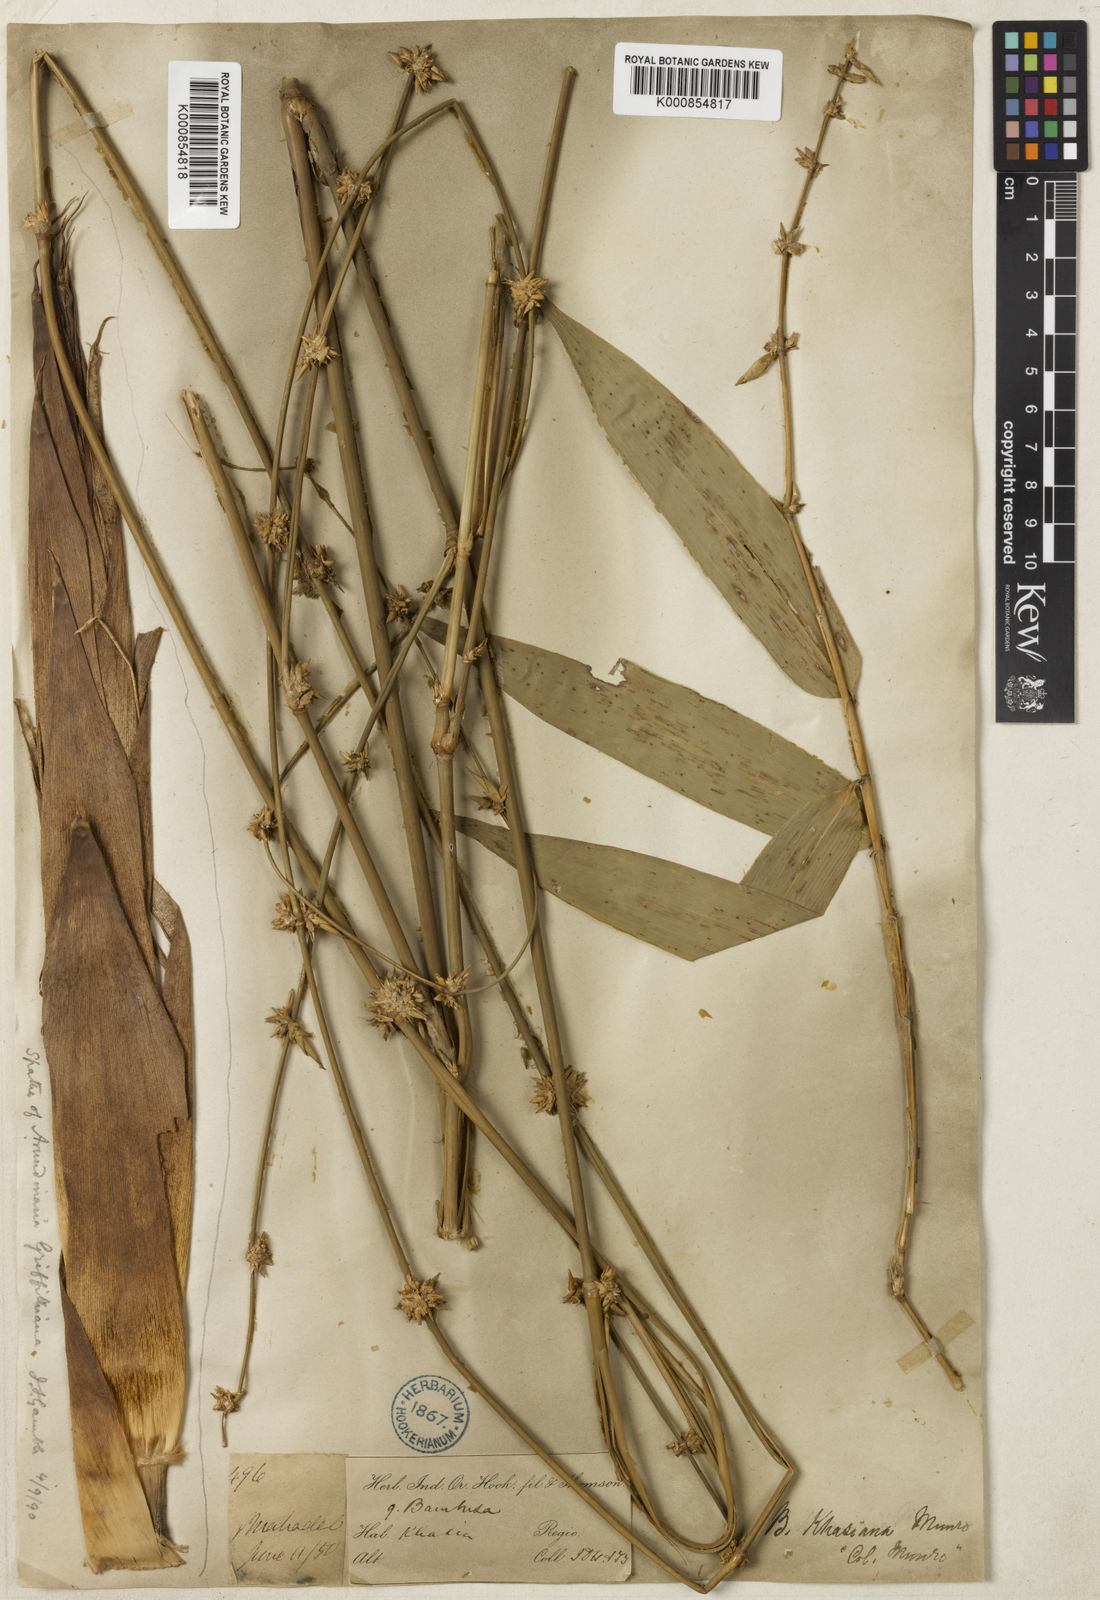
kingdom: Plantae
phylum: Tracheophyta
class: Liliopsida
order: Poales
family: Poaceae
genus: Chimonocalamus
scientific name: Chimonocalamus griffithianus
